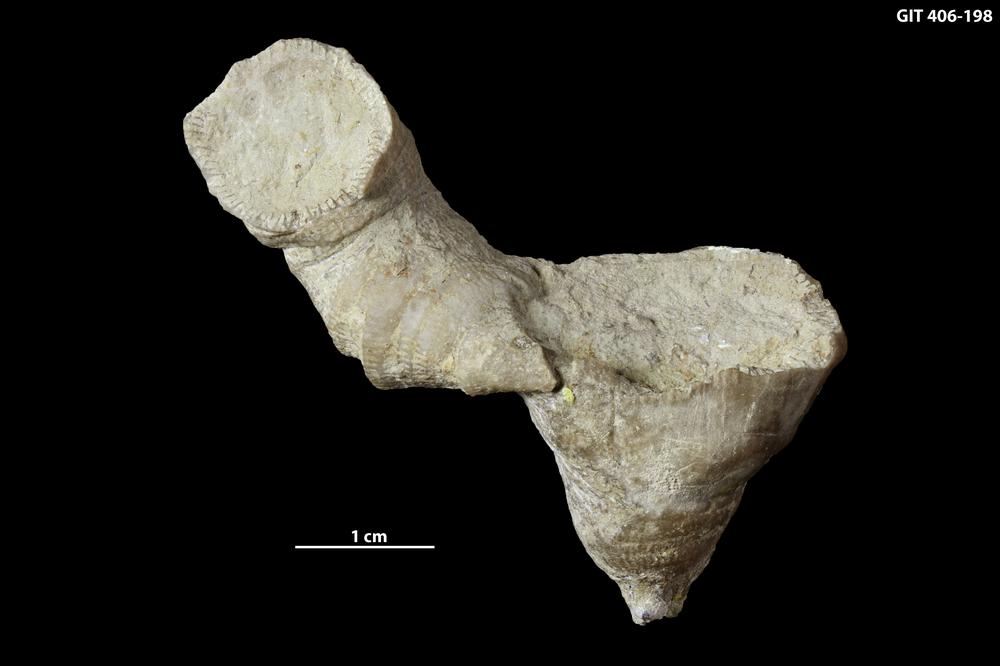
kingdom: Animalia
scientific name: Animalia
